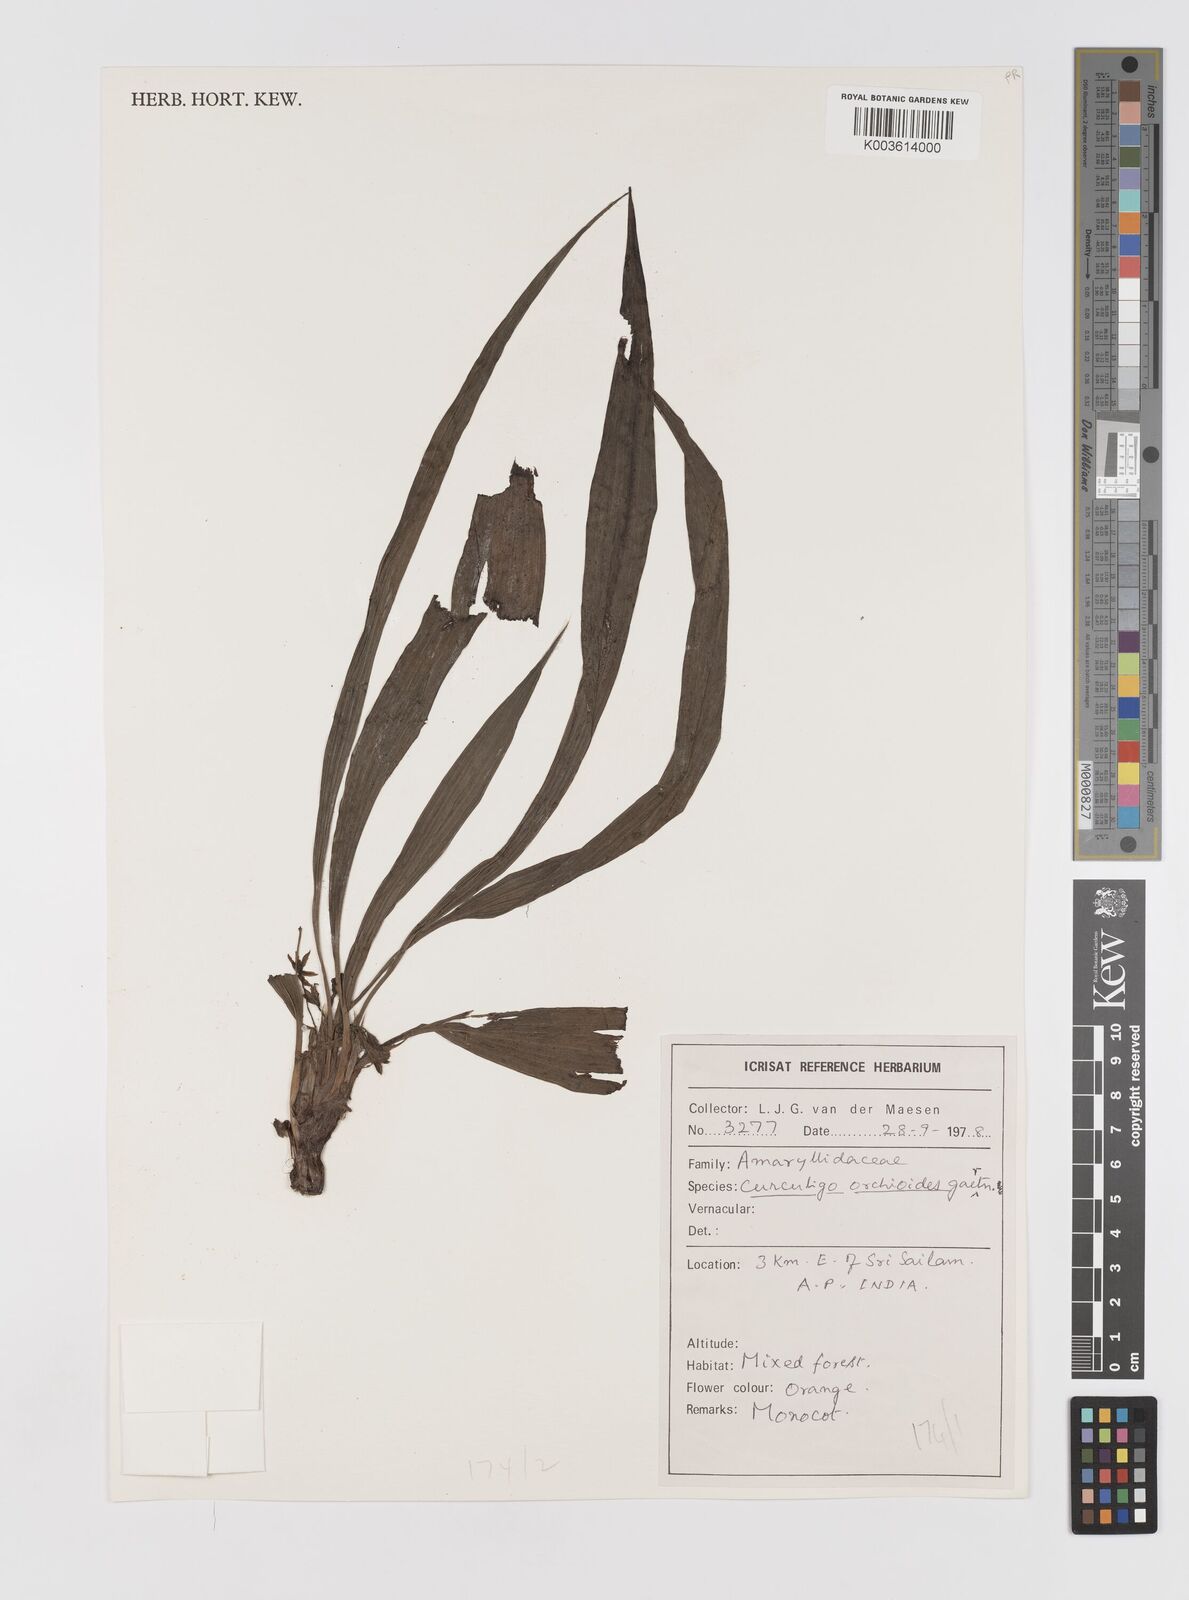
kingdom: Plantae
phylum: Tracheophyta
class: Liliopsida
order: Asparagales
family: Hypoxidaceae
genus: Curculigo
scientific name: Curculigo orchioides
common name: Golden eye-grass
